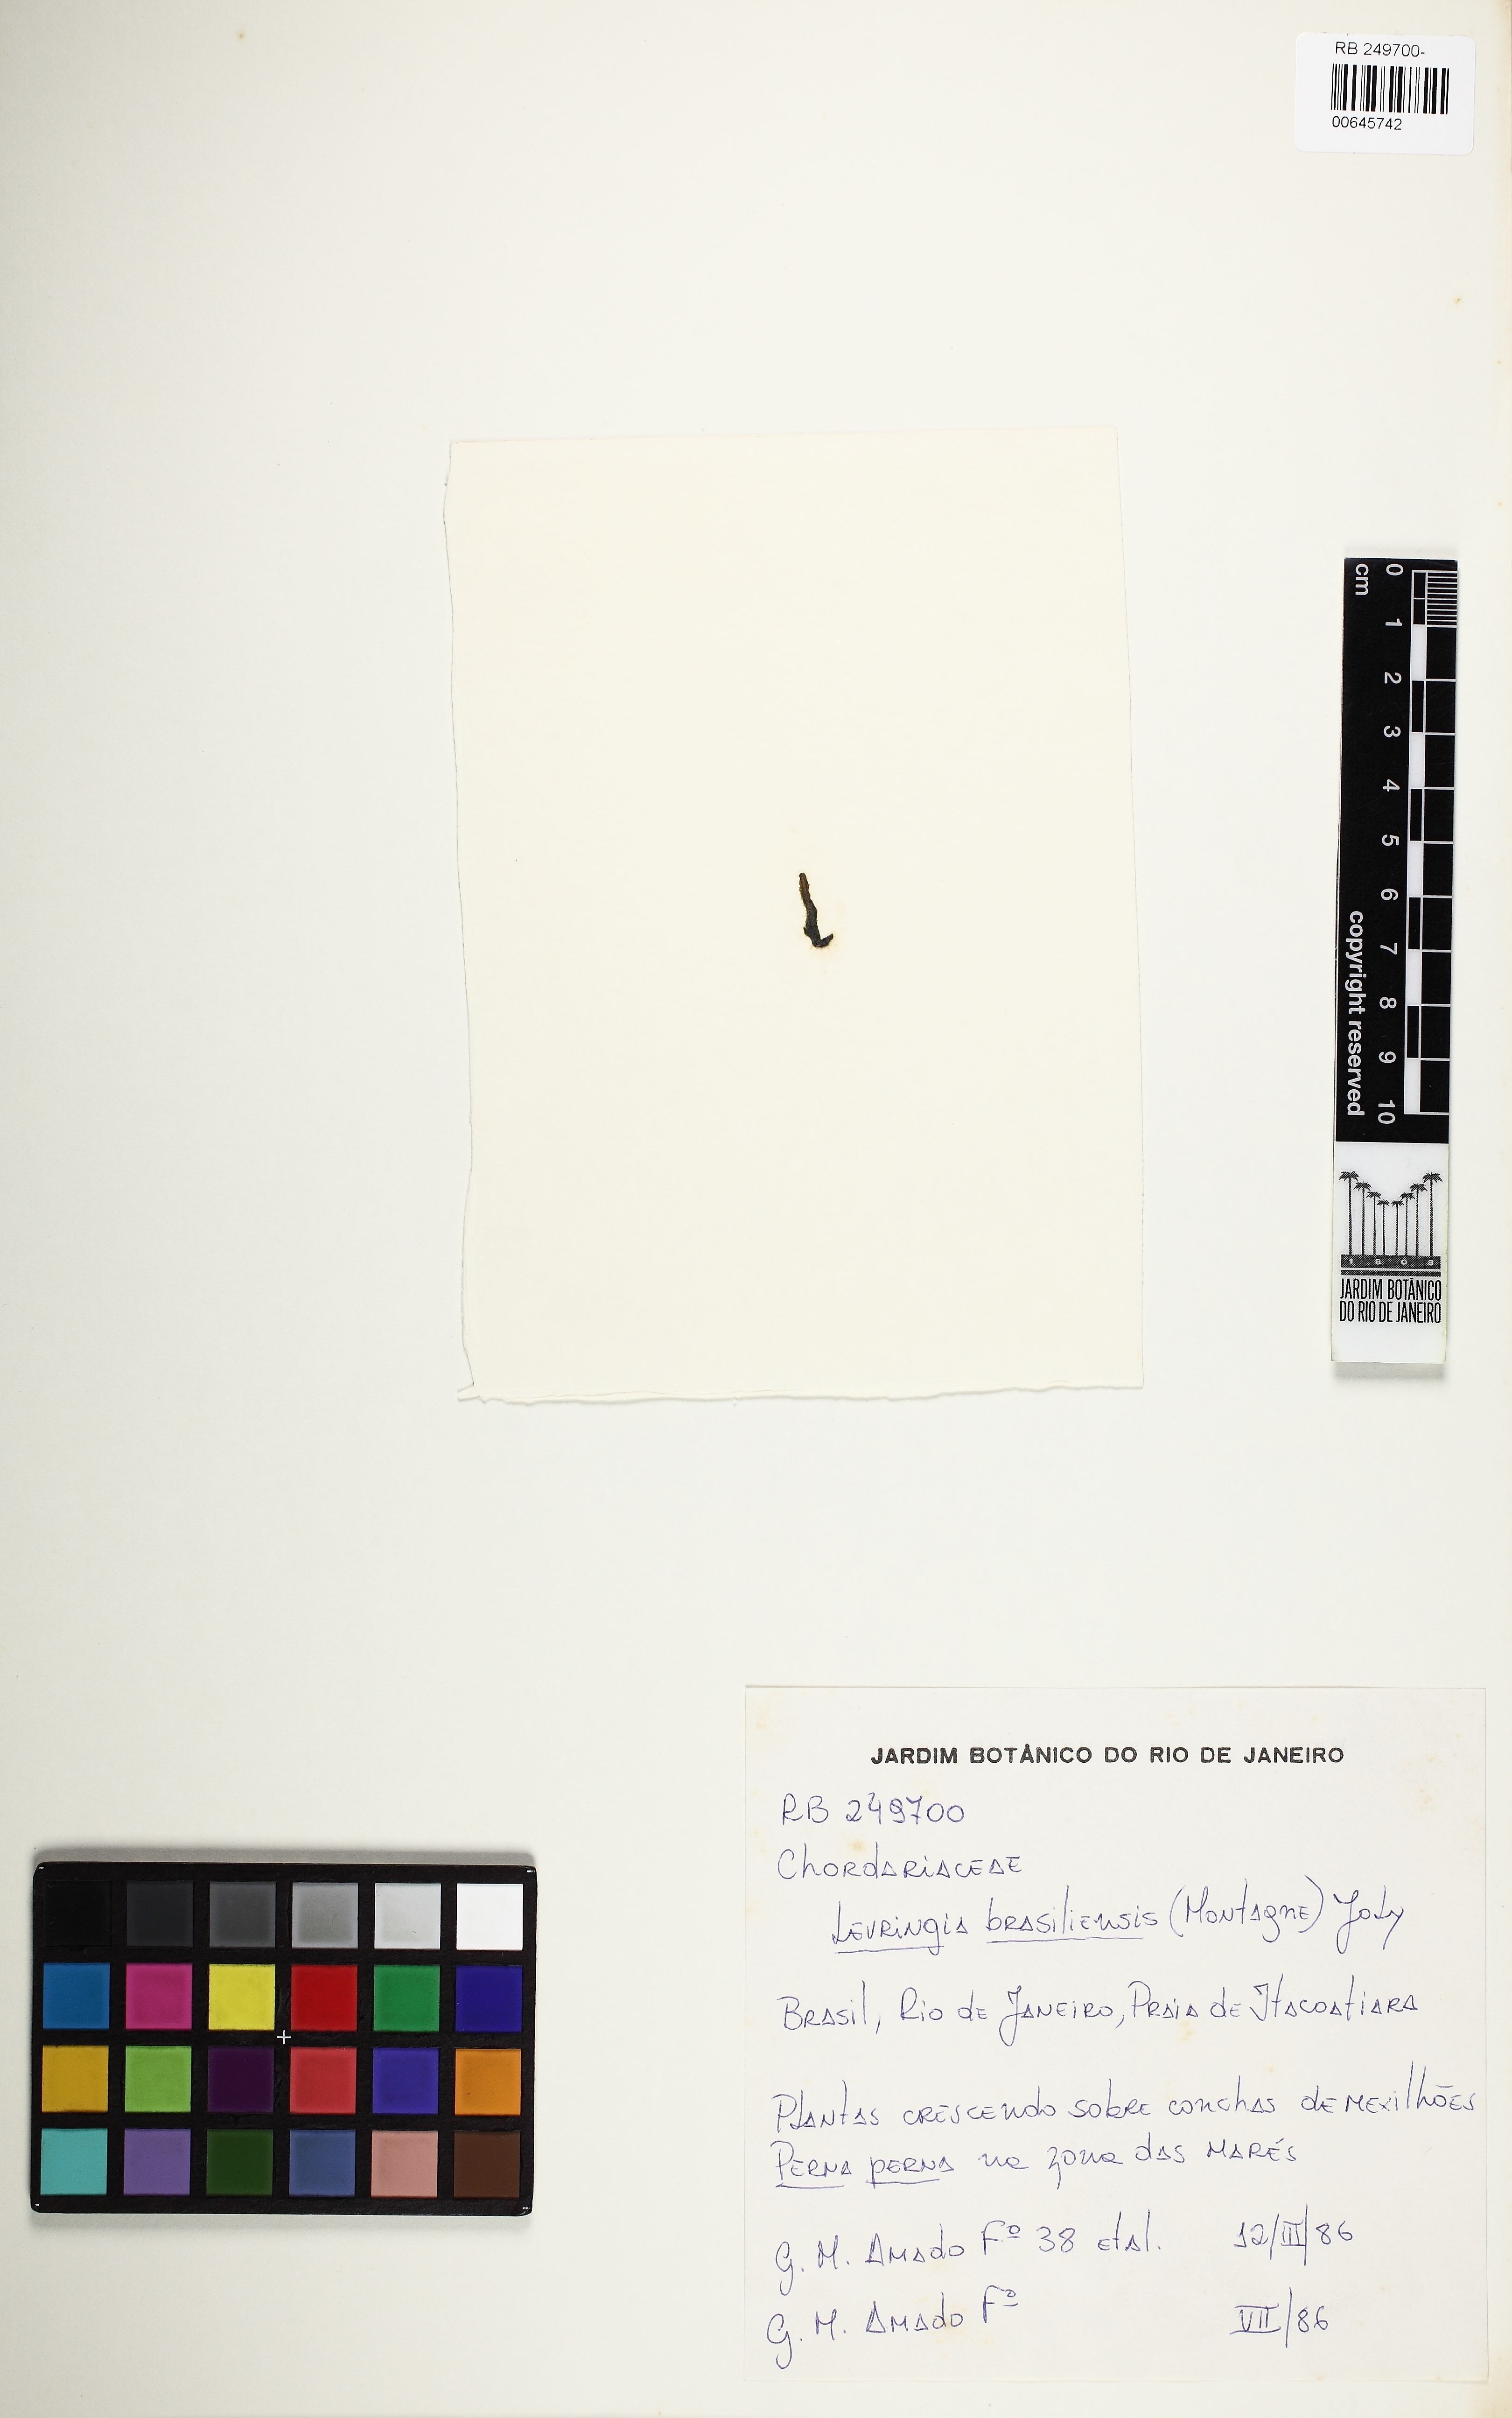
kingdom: Chromista
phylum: Ochrophyta
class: Phaeophyceae
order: Ectocarpales
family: Chordariaceae
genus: Levringia
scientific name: Levringia brasiliensis
